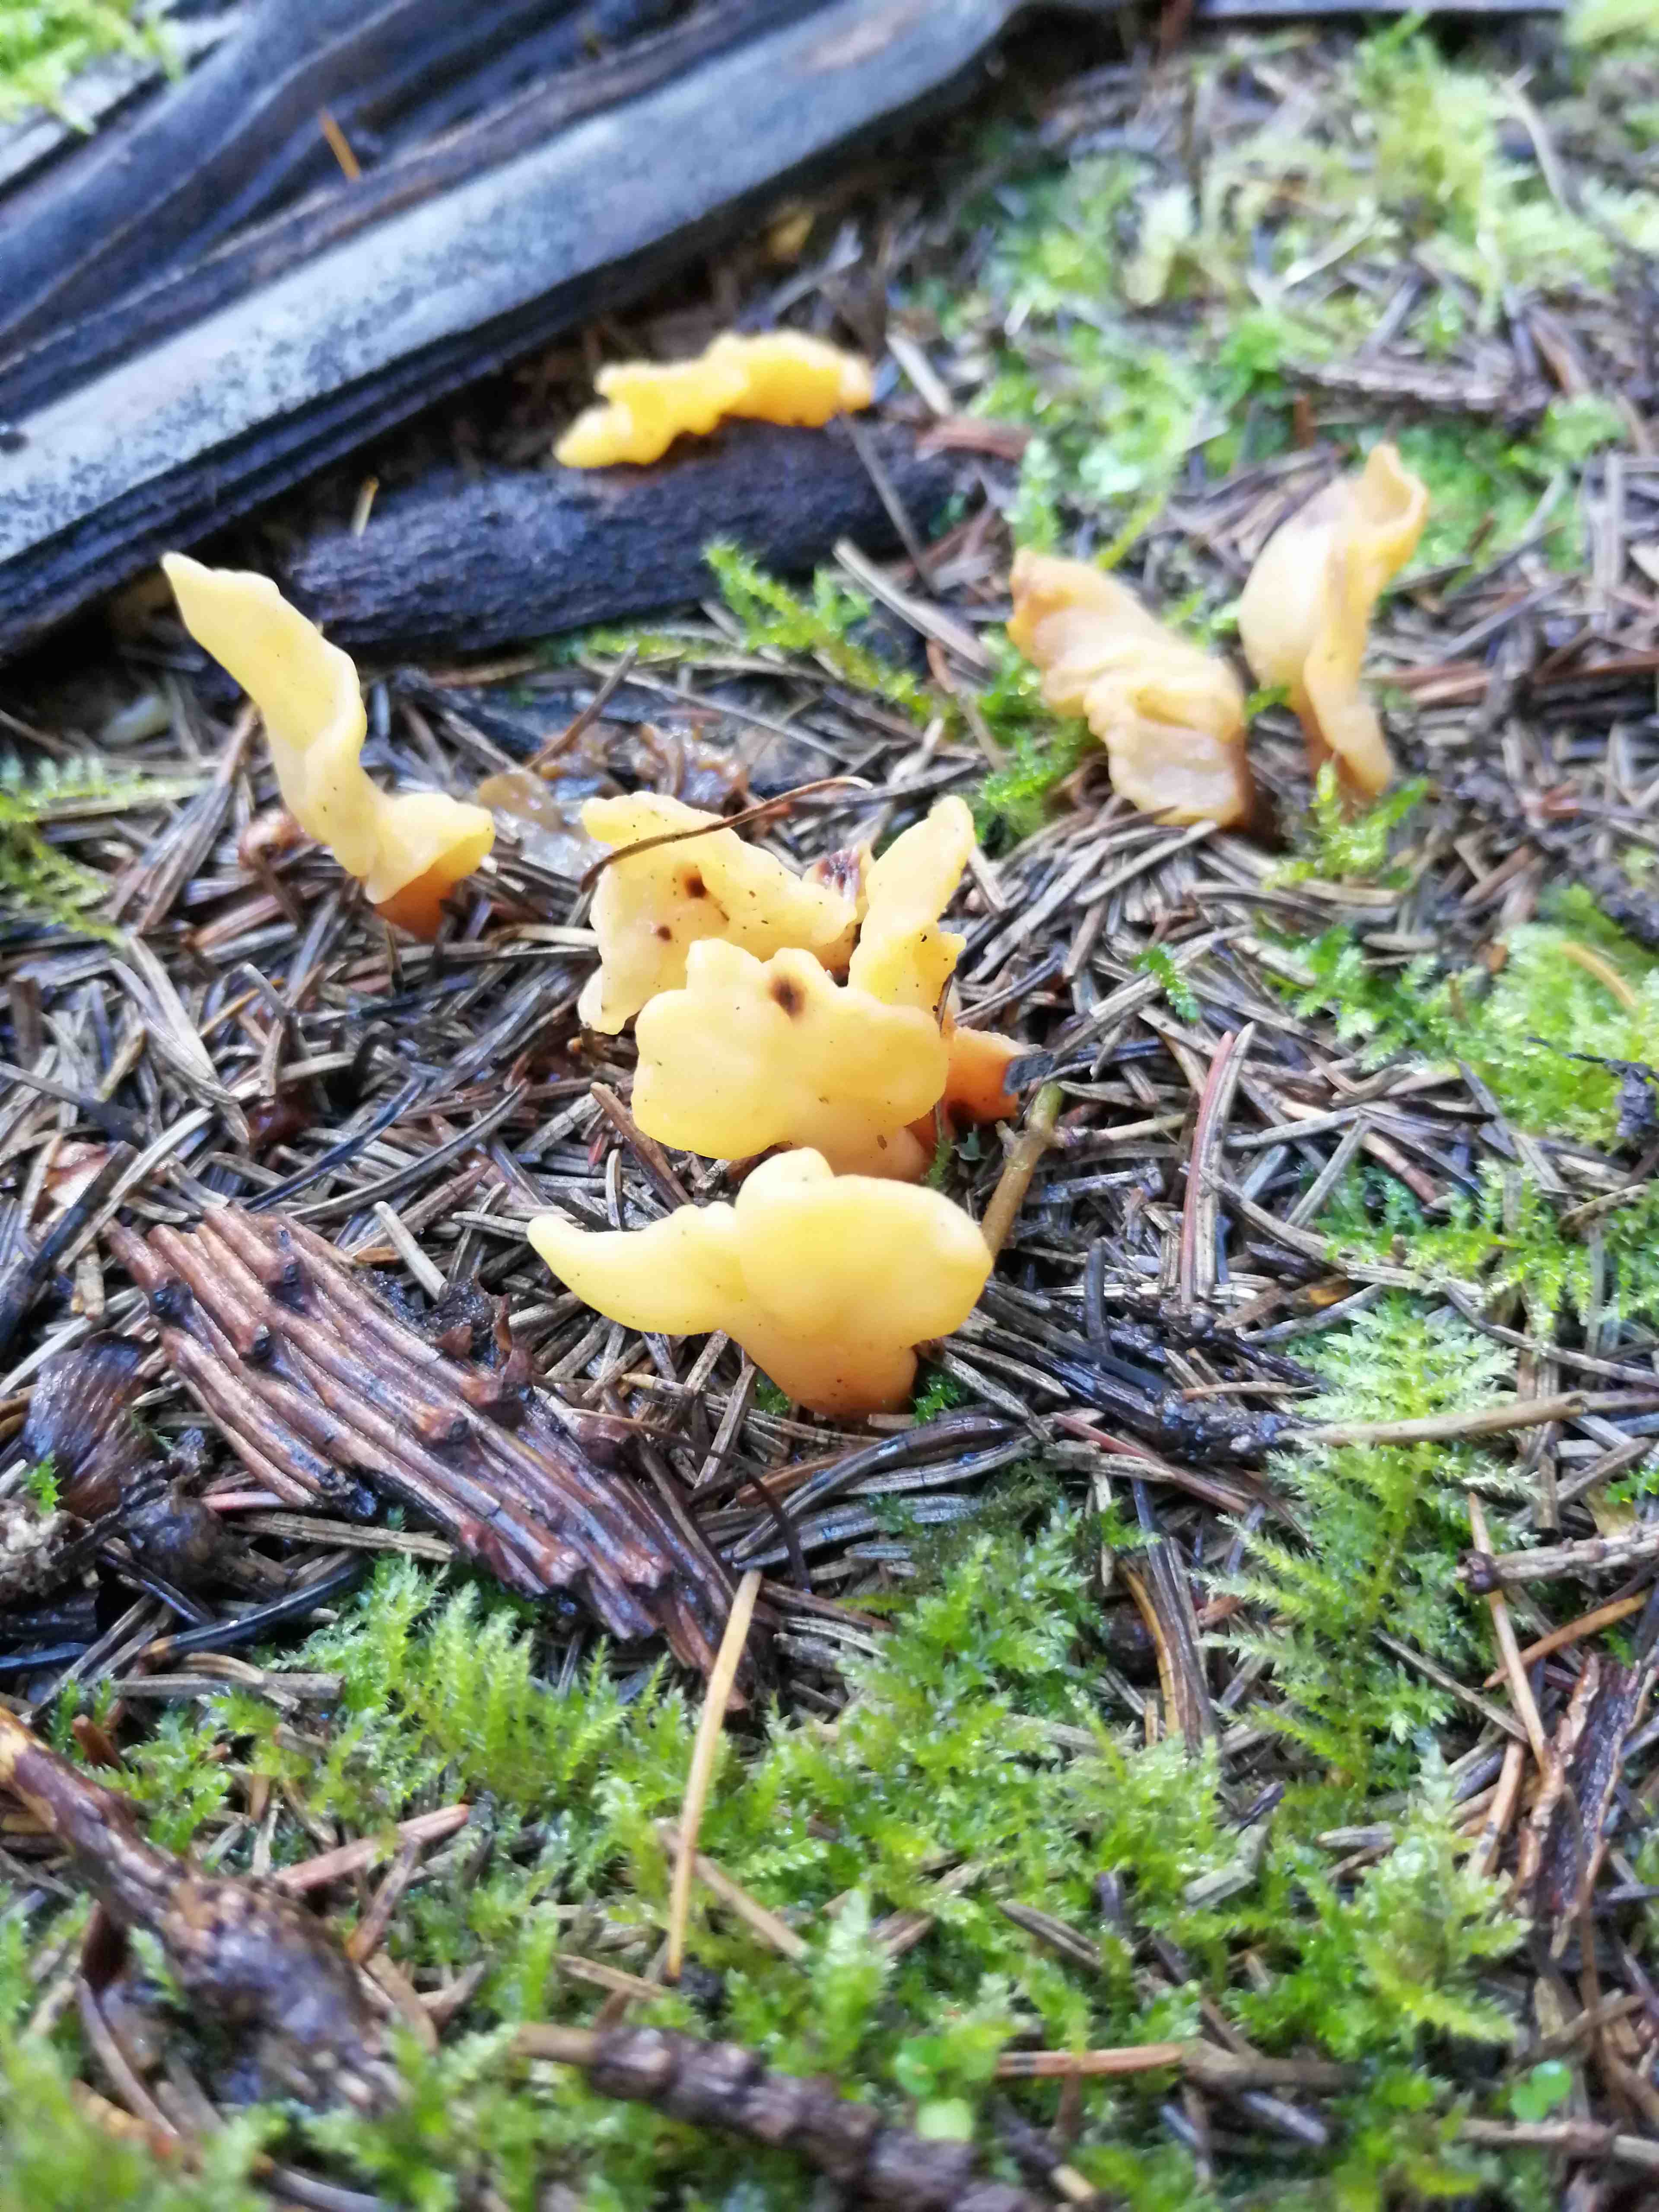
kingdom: Fungi
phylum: Ascomycota
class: Leotiomycetes
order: Rhytismatales
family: Cudoniaceae
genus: Spathularia
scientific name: Spathularia flavida
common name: gul spatelsvamp
